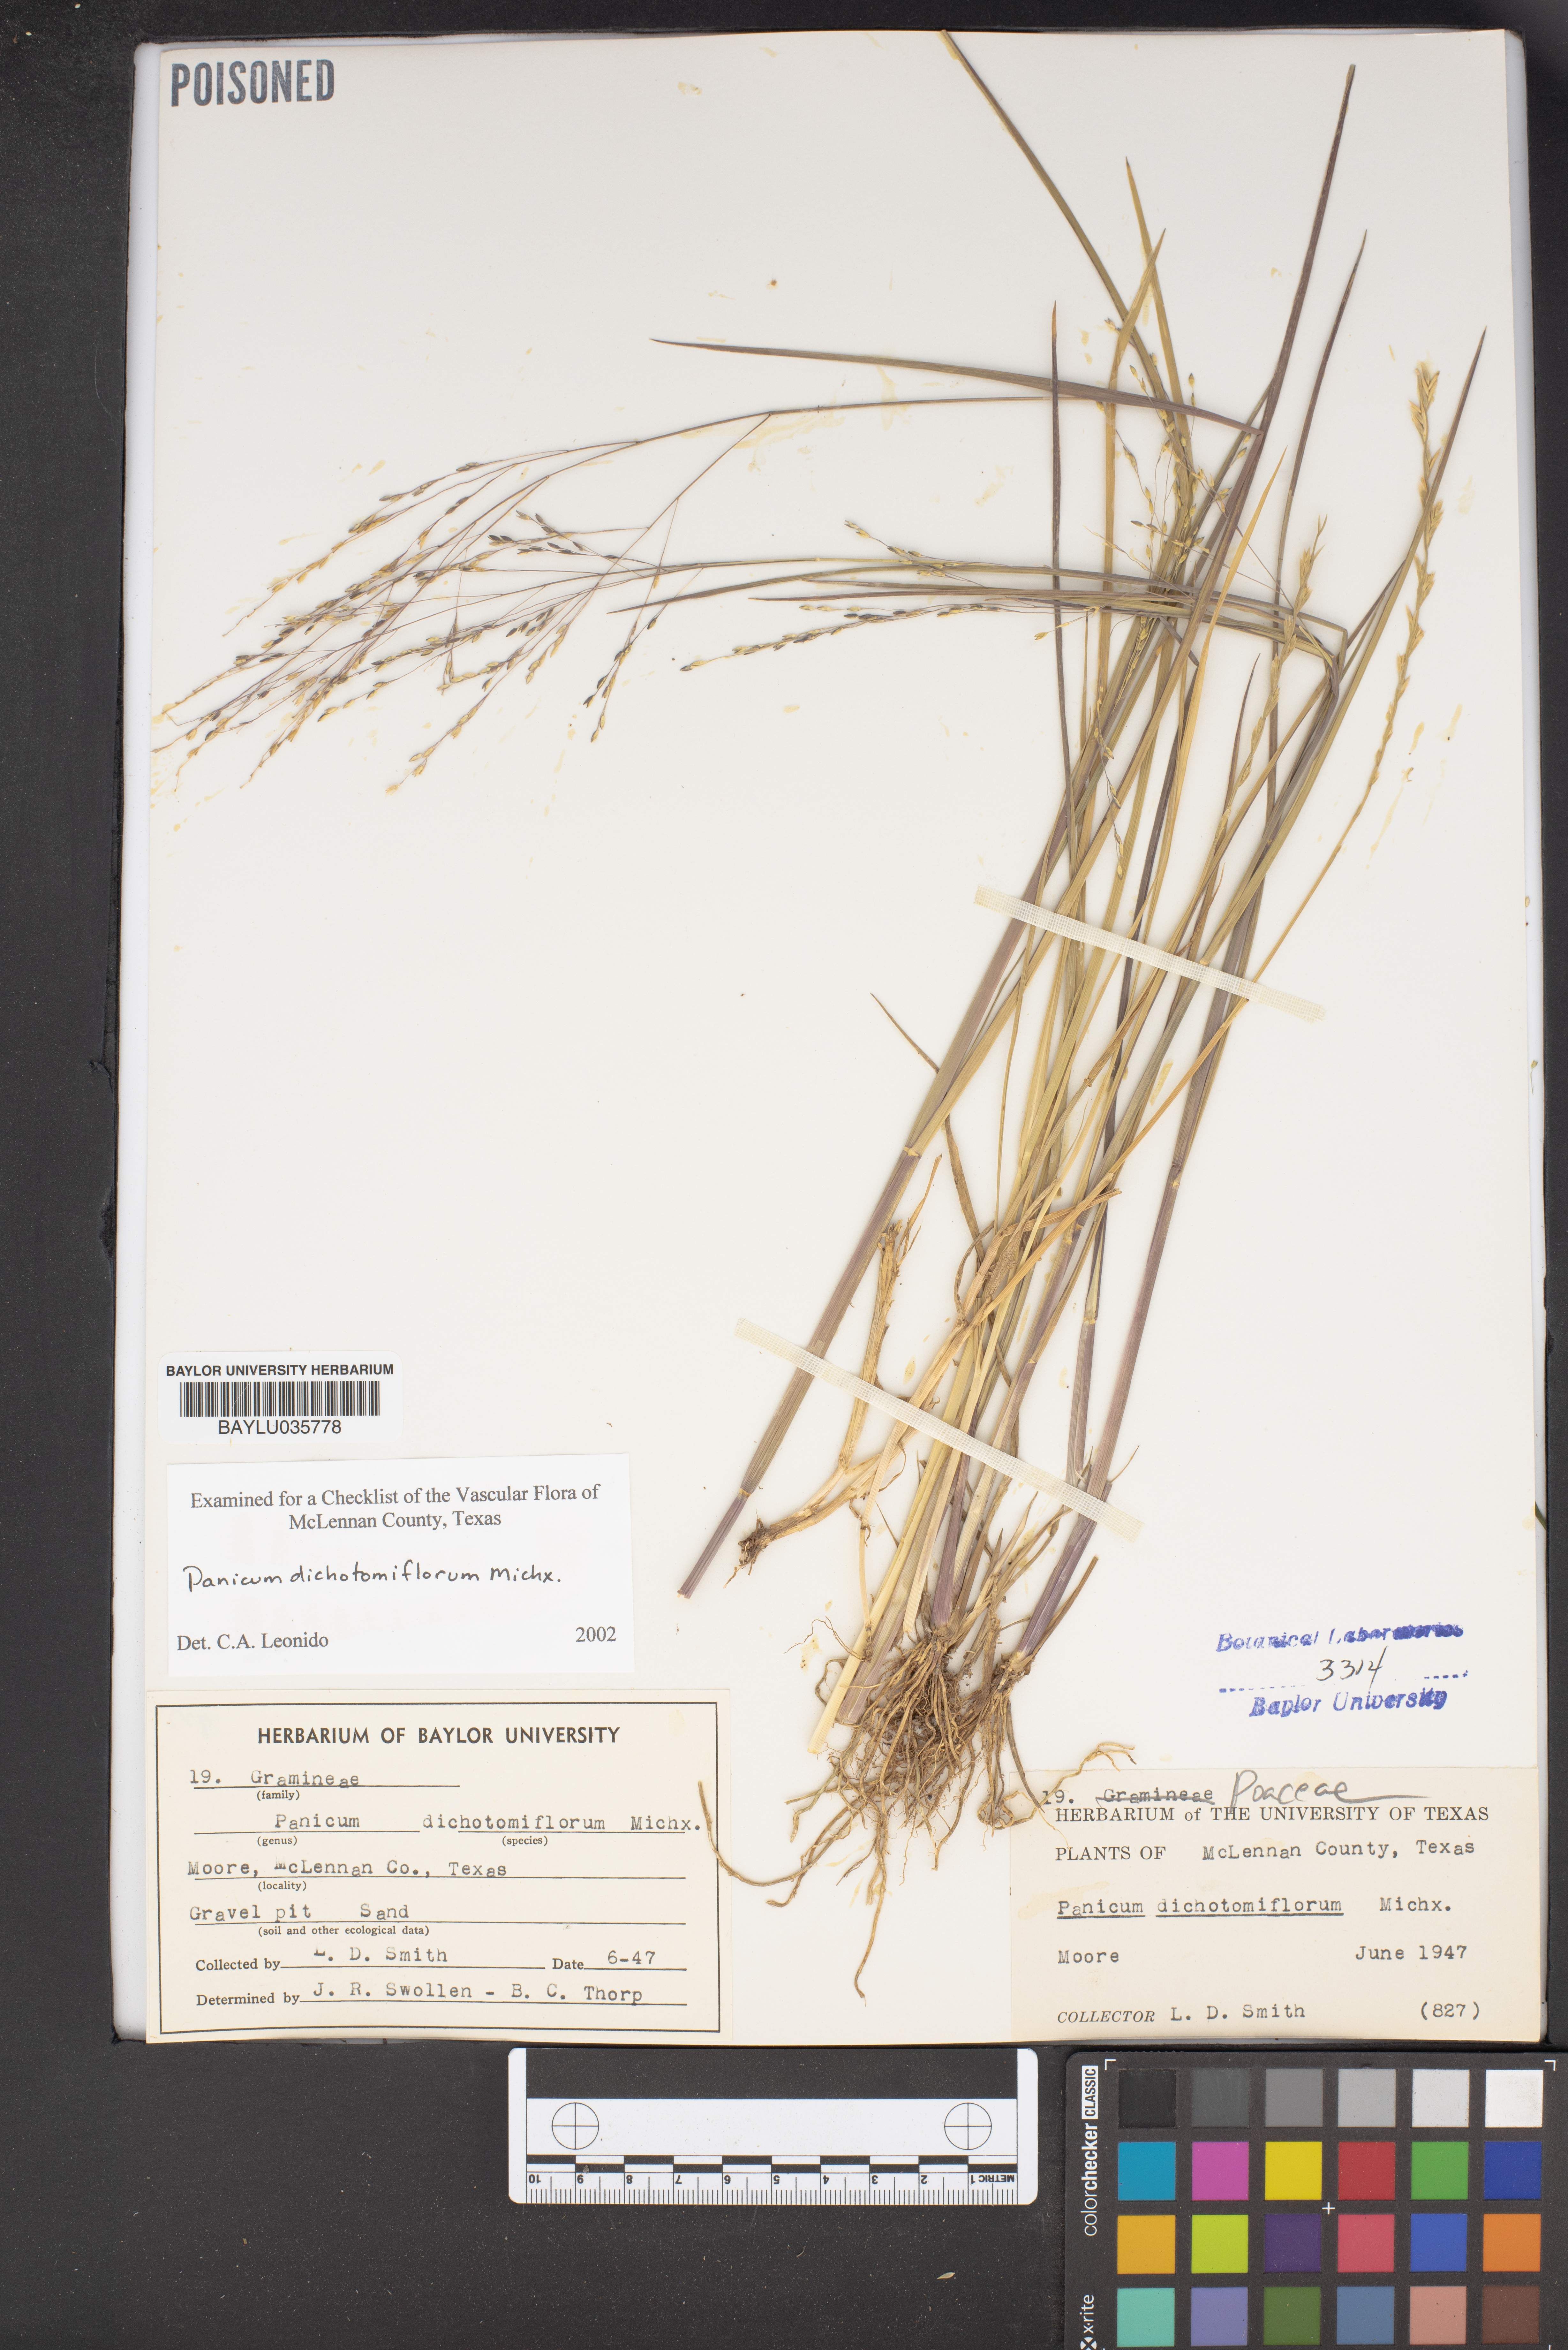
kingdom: Plantae
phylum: Tracheophyta
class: Liliopsida
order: Poales
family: Poaceae
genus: Panicum
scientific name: Panicum dichotomiflorum
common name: Autumn millet
